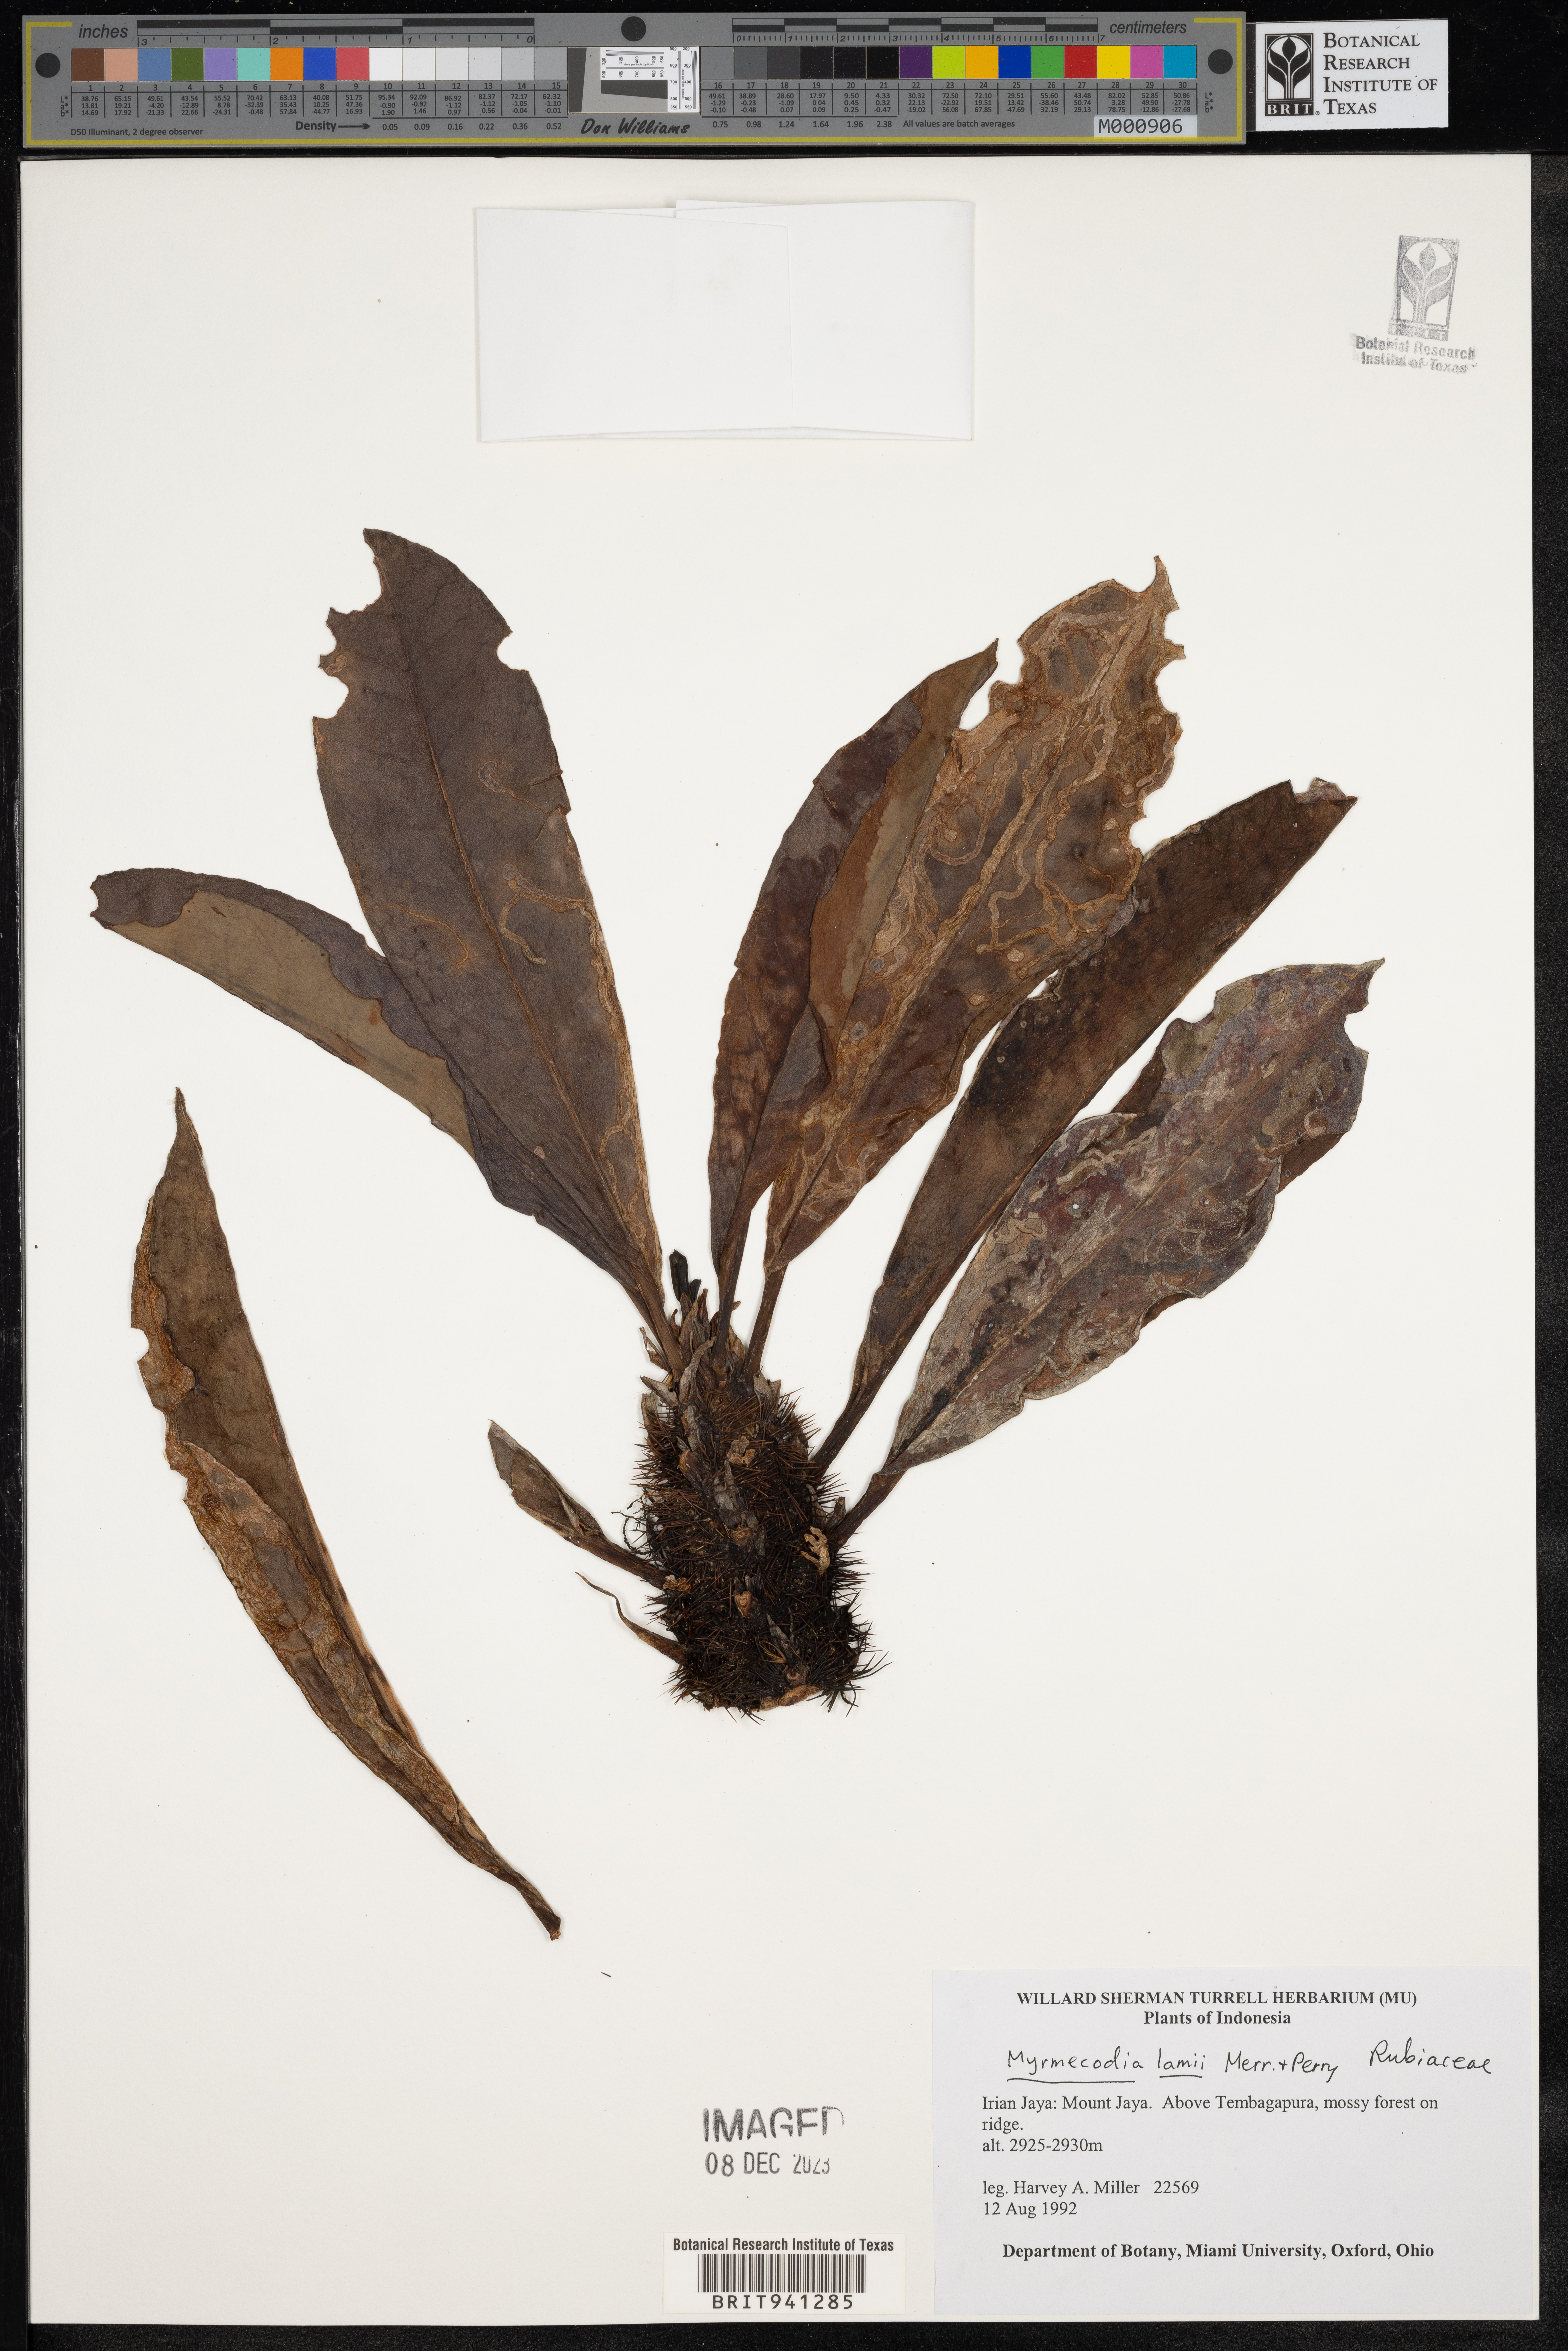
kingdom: Plantae
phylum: Tracheophyta
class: Magnoliopsida
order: Gentianales
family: Rubiaceae
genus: Myrmecodia
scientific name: Myrmecodia
